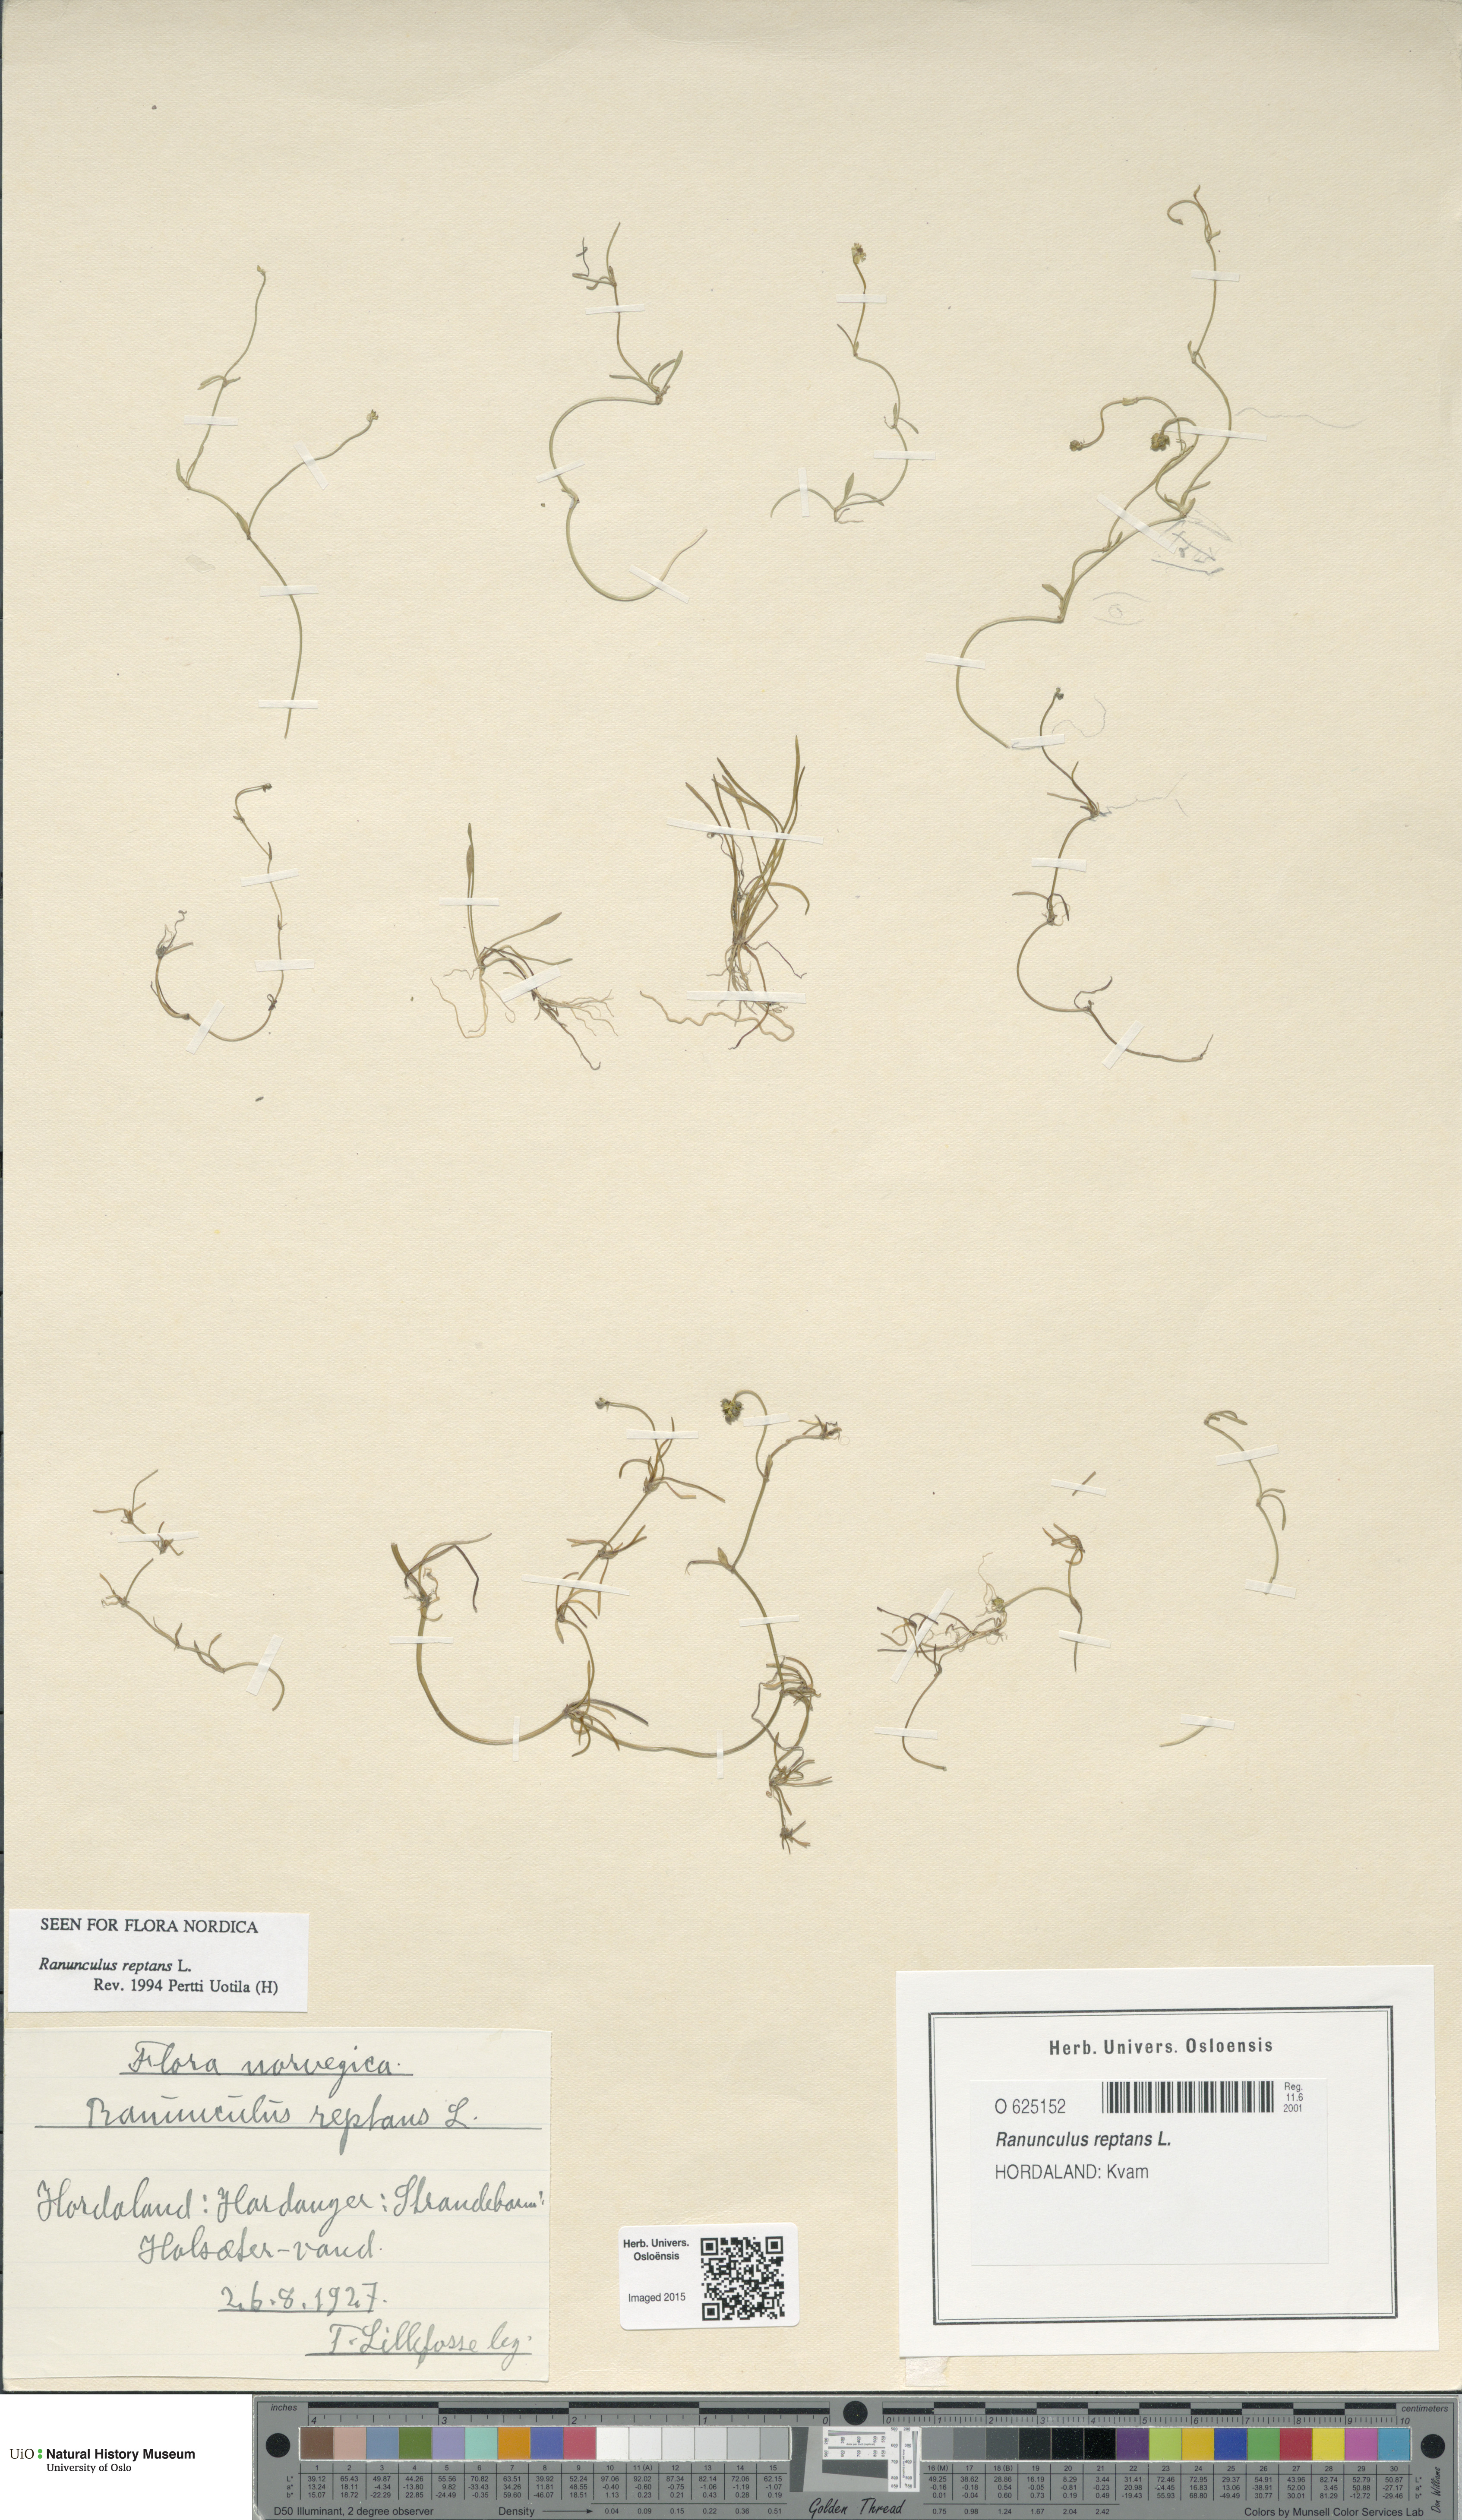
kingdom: Plantae
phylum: Tracheophyta
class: Magnoliopsida
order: Ranunculales
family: Ranunculaceae
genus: Ranunculus
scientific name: Ranunculus reptans
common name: Creeping spearwort
